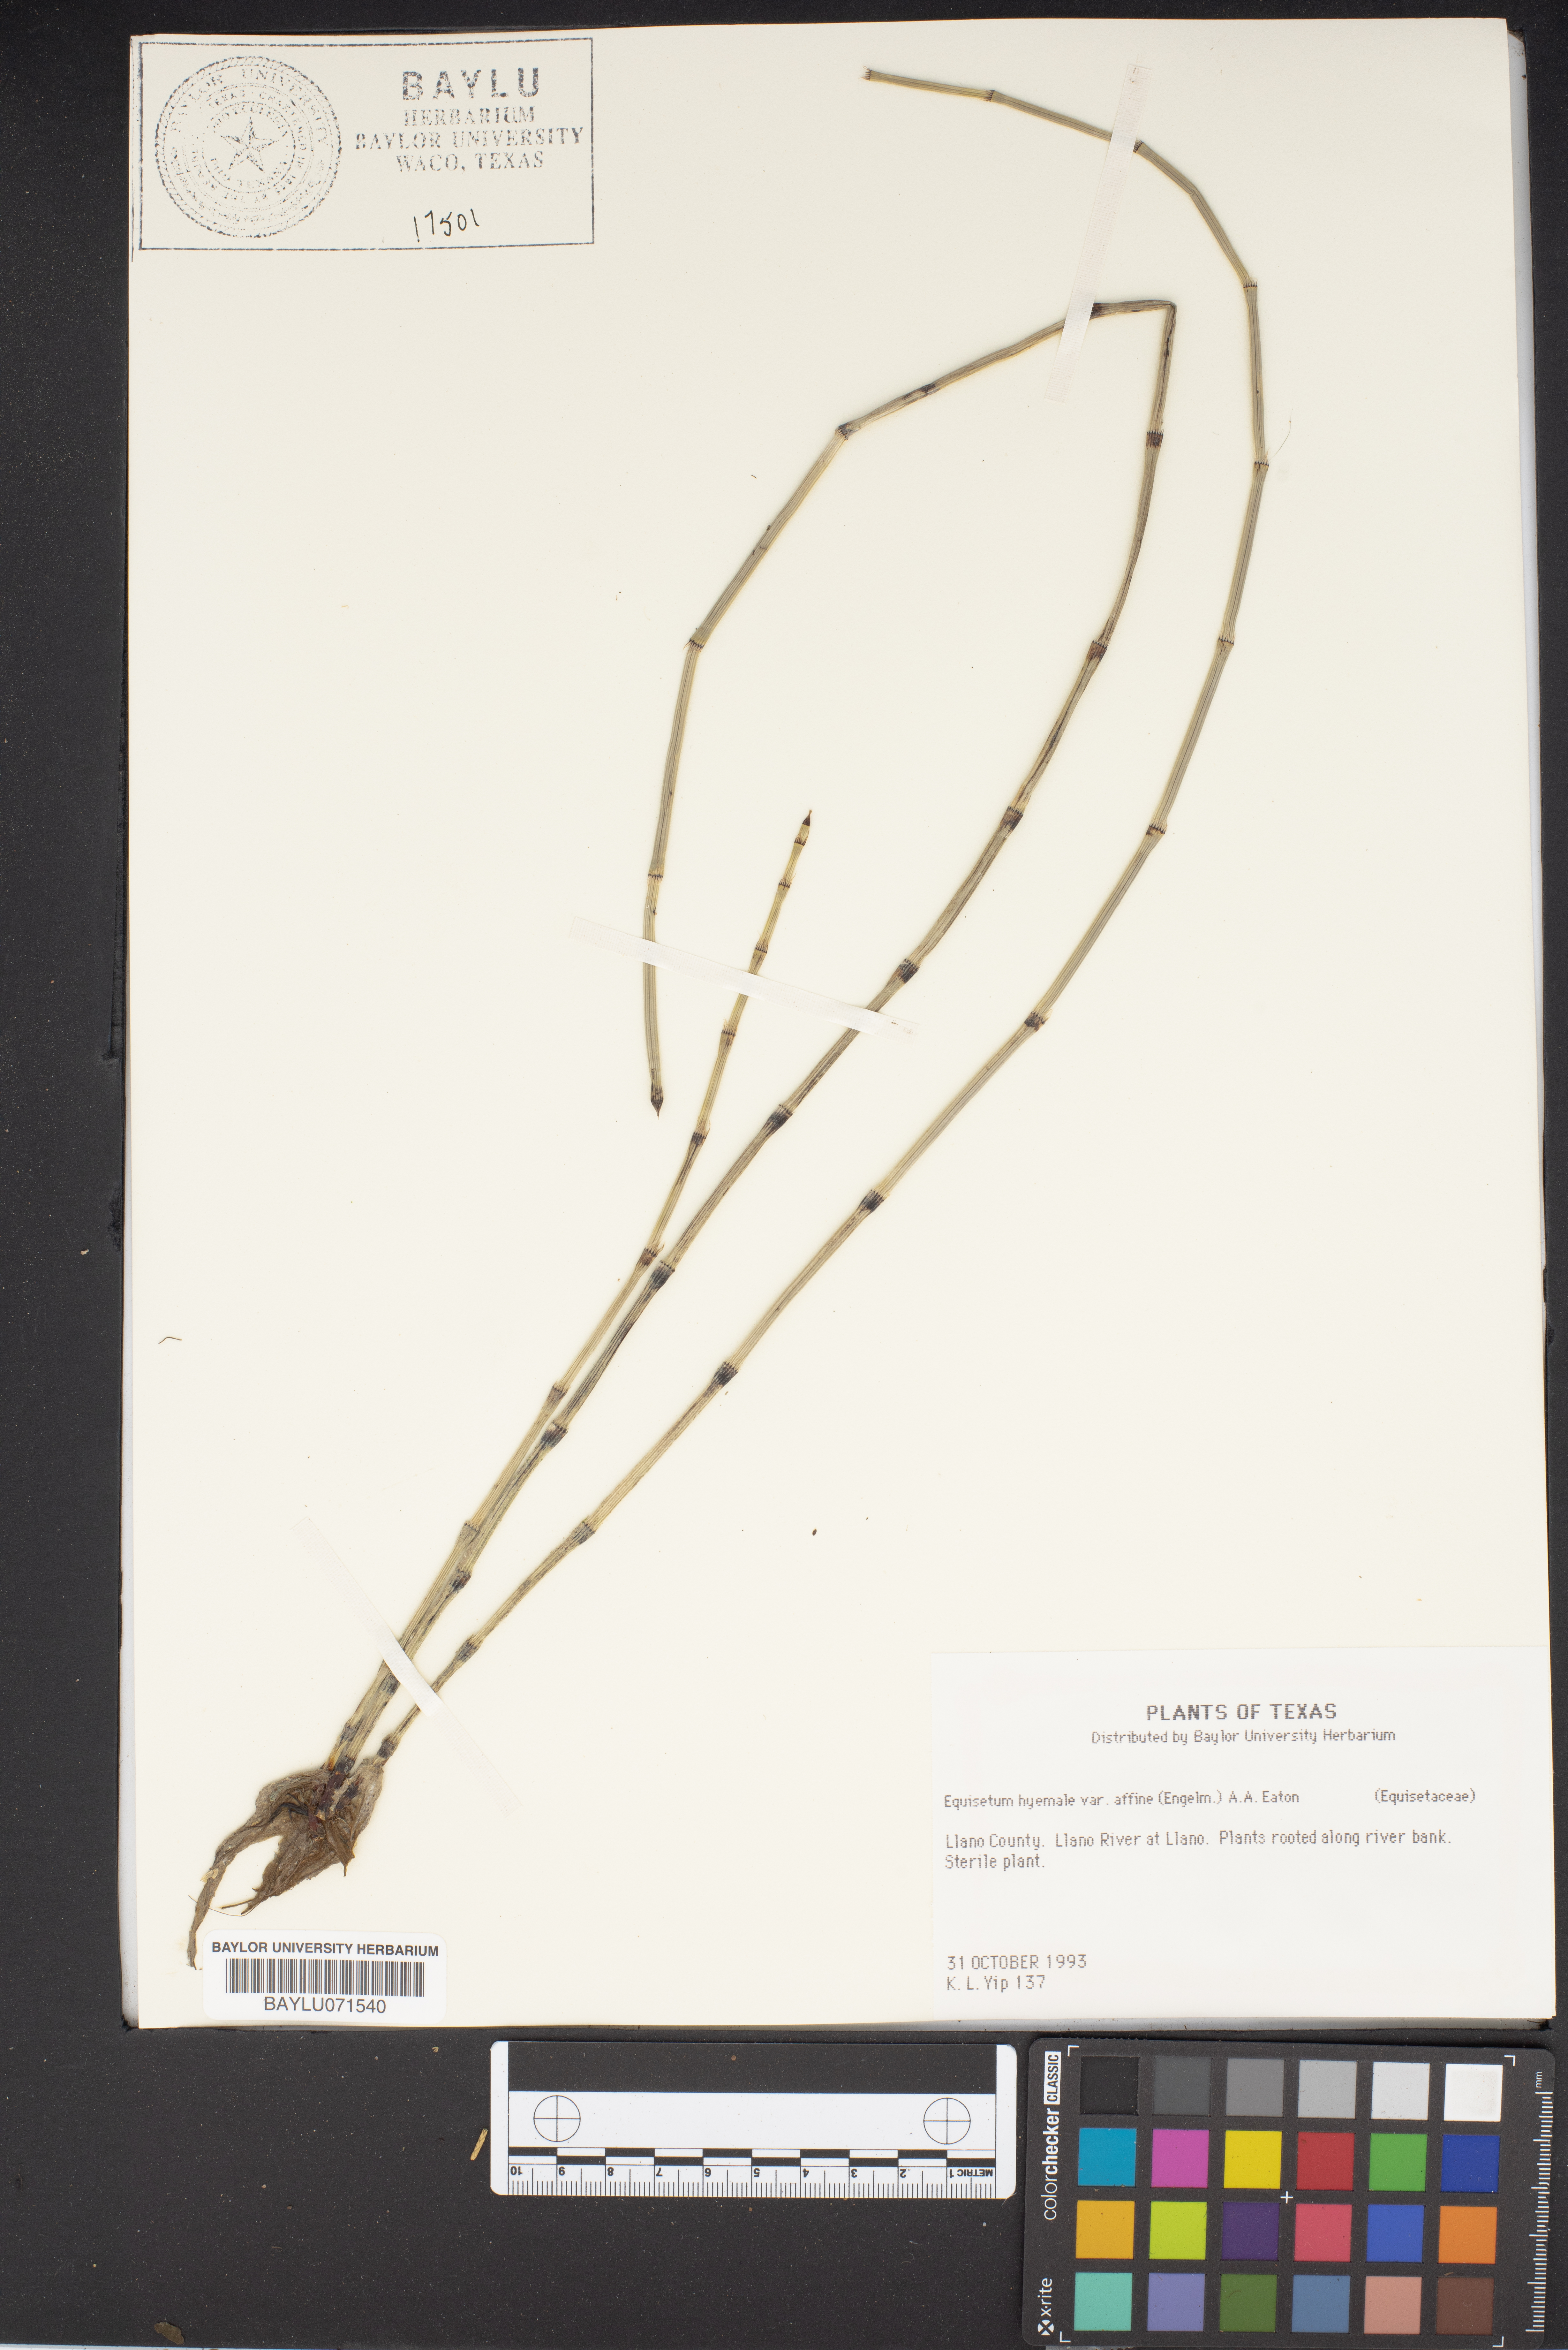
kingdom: Plantae
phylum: Tracheophyta
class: Polypodiopsida
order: Equisetales
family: Equisetaceae
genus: Equisetum
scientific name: Equisetum praealtum
